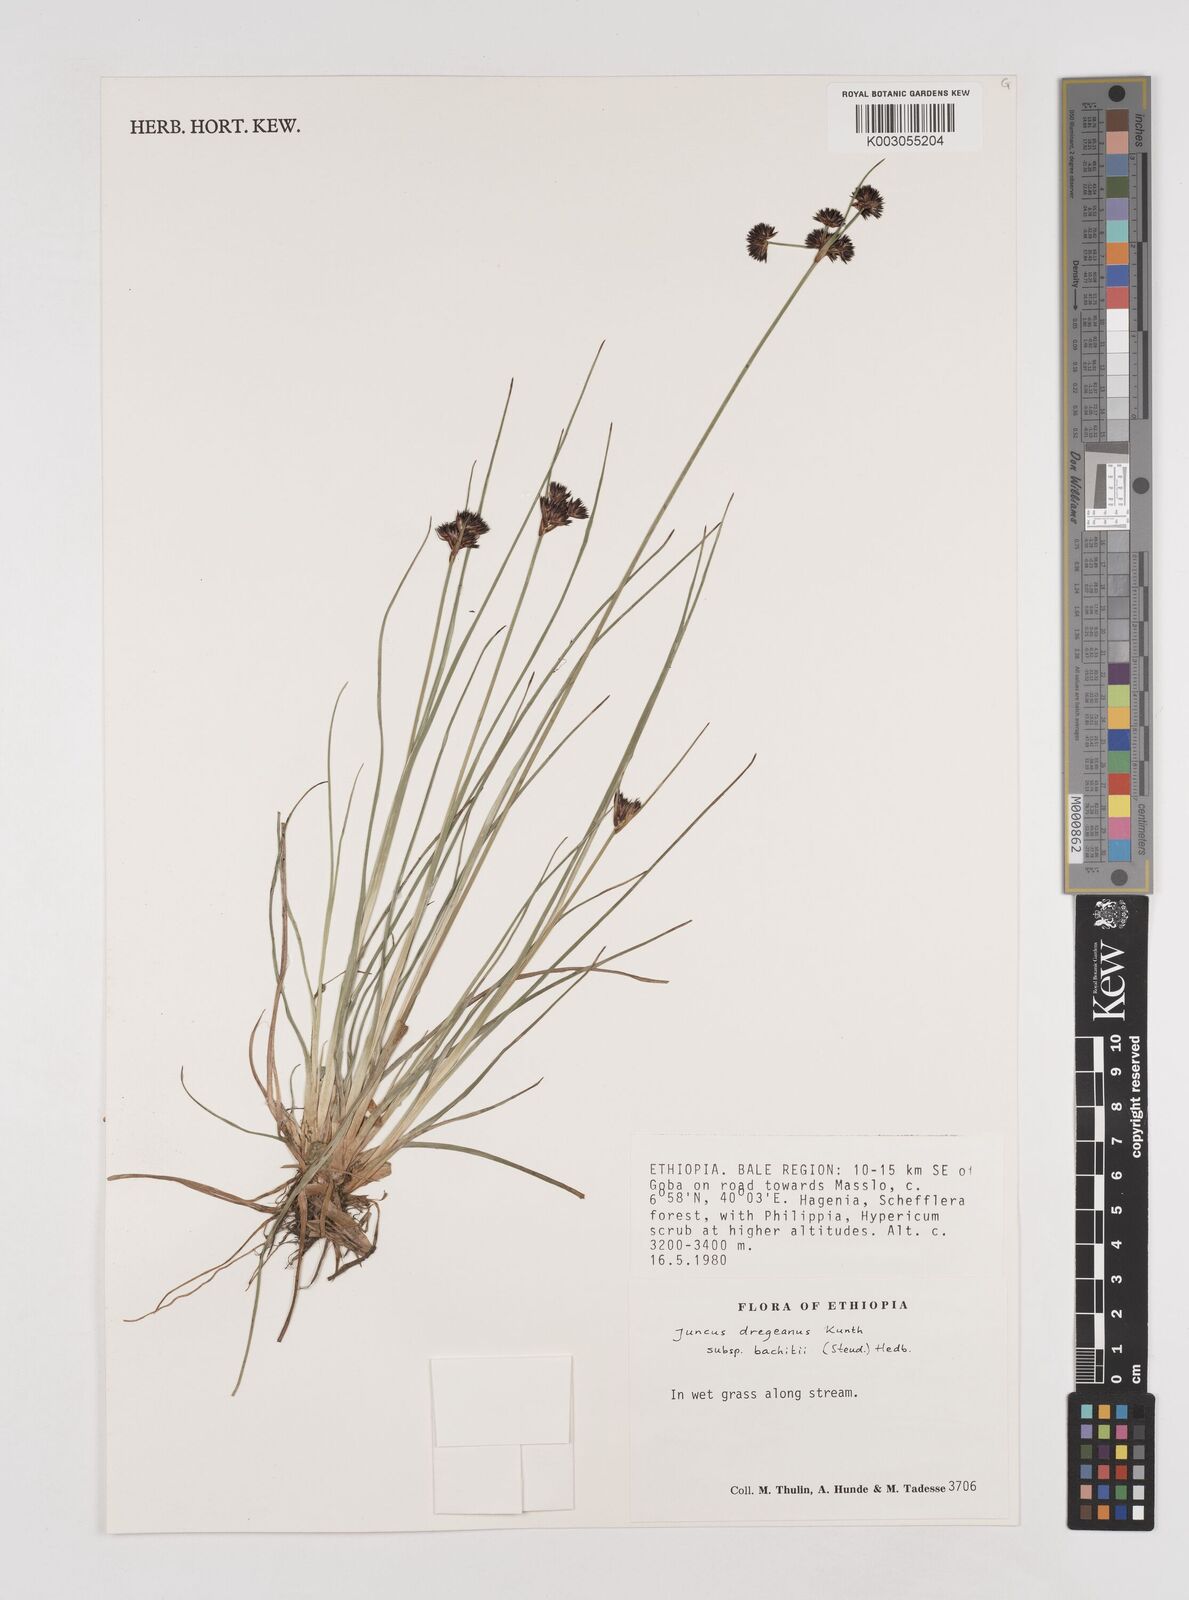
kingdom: Plantae
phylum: Tracheophyta
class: Liliopsida
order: Poales
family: Juncaceae
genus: Juncus
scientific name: Juncus dregeanus
